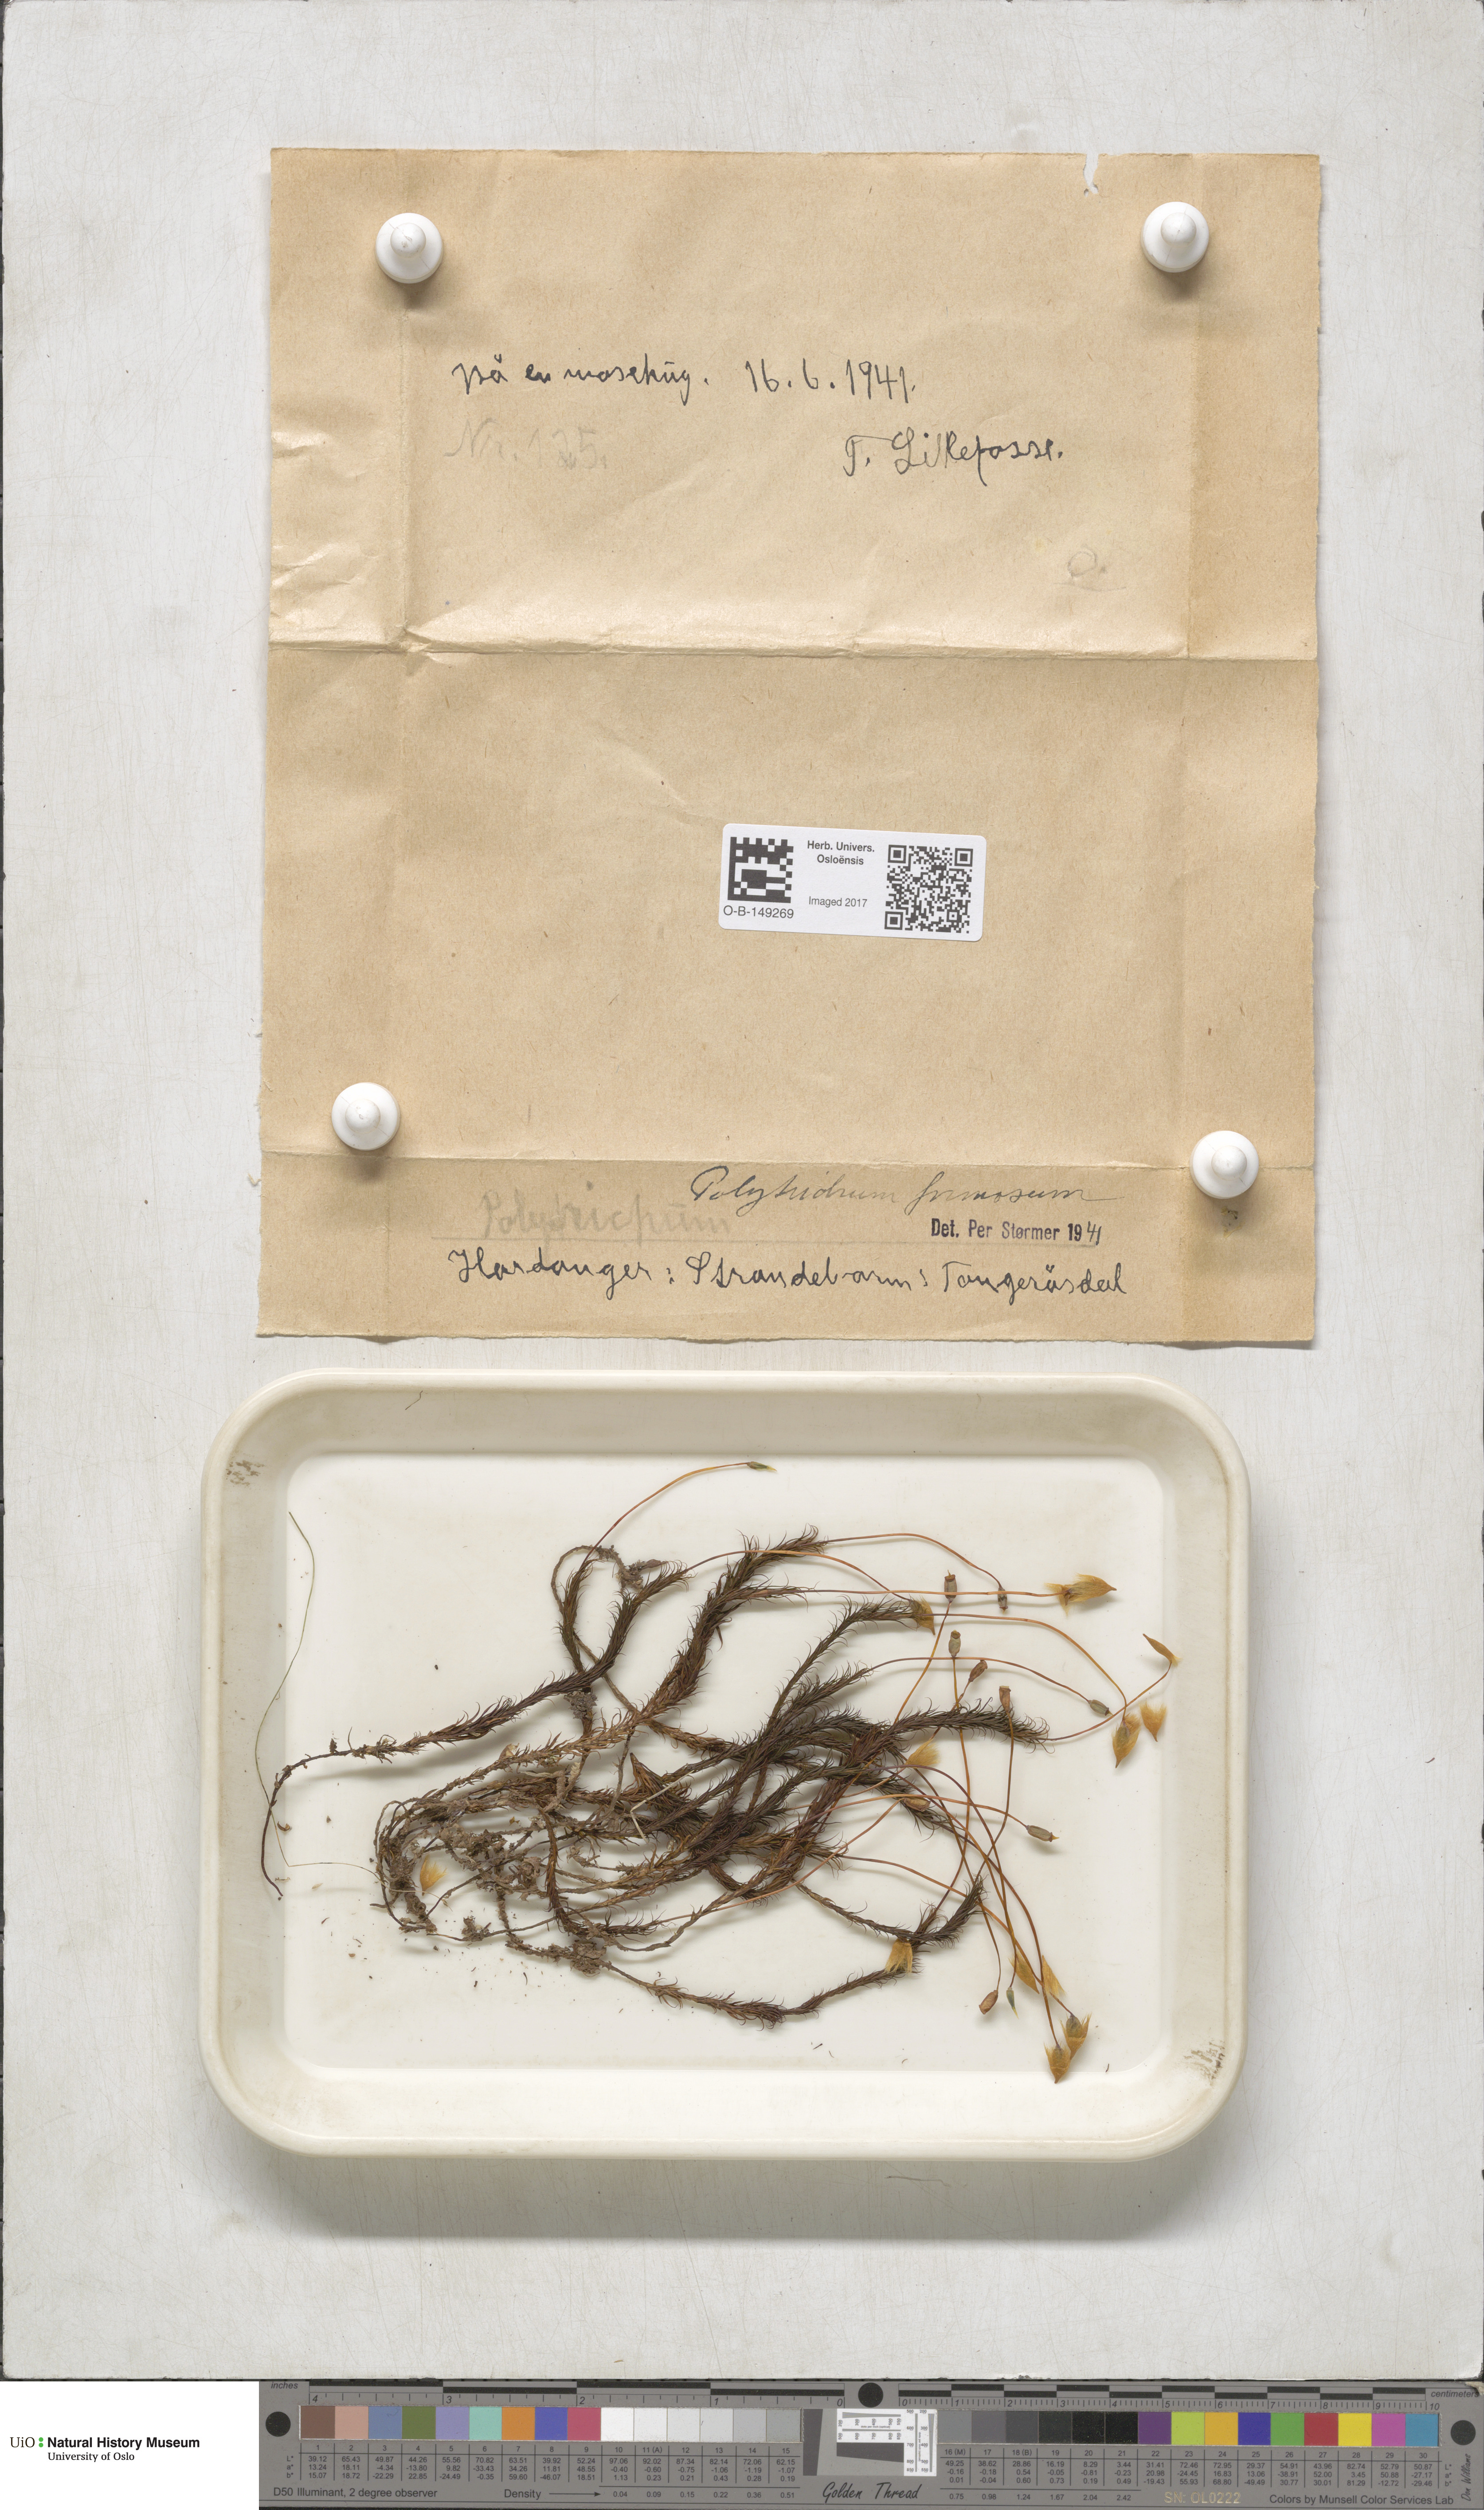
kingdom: Plantae
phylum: Bryophyta
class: Polytrichopsida
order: Polytrichales
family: Polytrichaceae
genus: Polytrichum
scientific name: Polytrichum formosum
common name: Bank haircap moss
